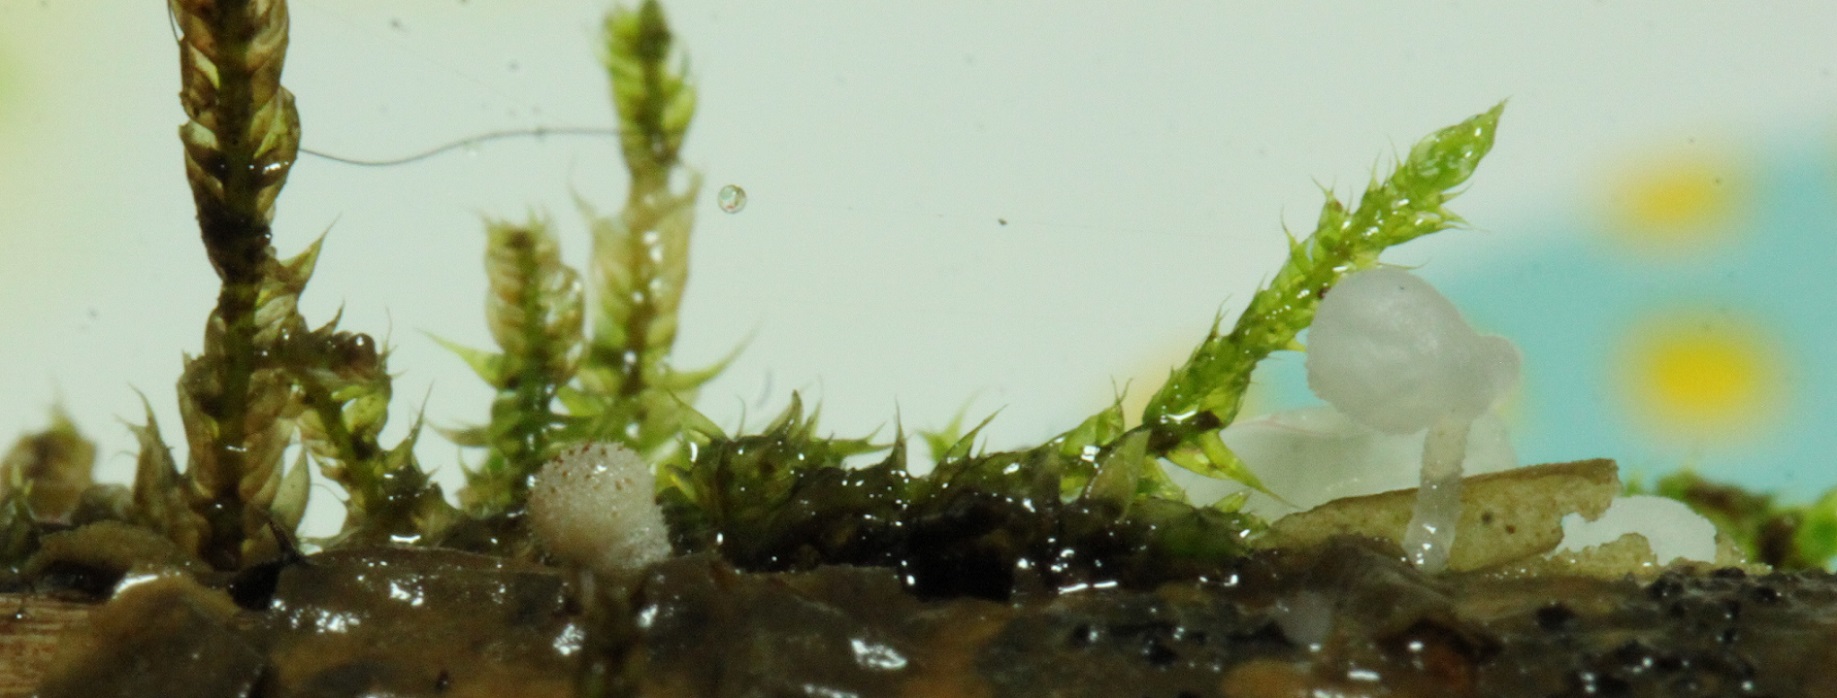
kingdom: Fungi
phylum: Basidiomycota
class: Agaricomycetes
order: Agaricales
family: Psathyrellaceae
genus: Coprinellus
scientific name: Coprinellus disseminatus
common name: bredsået blækhat
